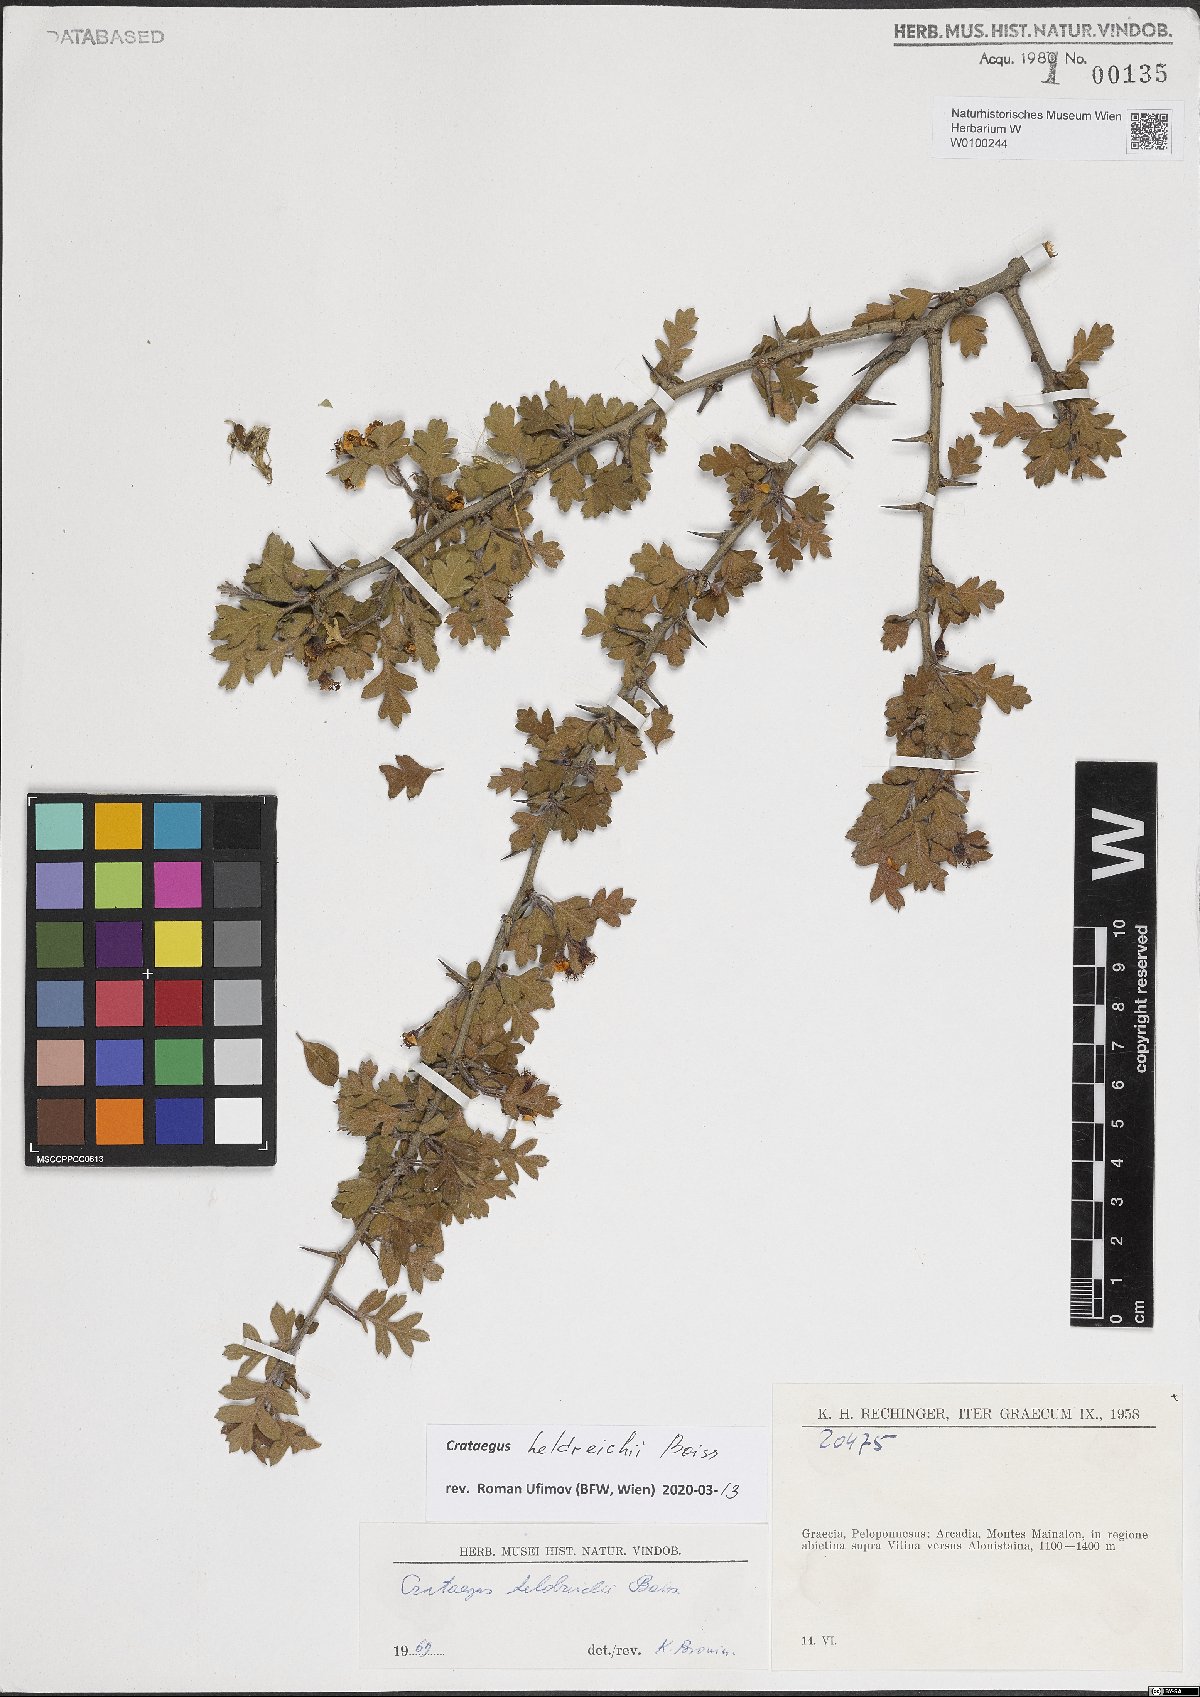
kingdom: Plantae
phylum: Tracheophyta
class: Magnoliopsida
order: Rosales
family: Rosaceae
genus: Crataegus
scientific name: Crataegus heldreichii
